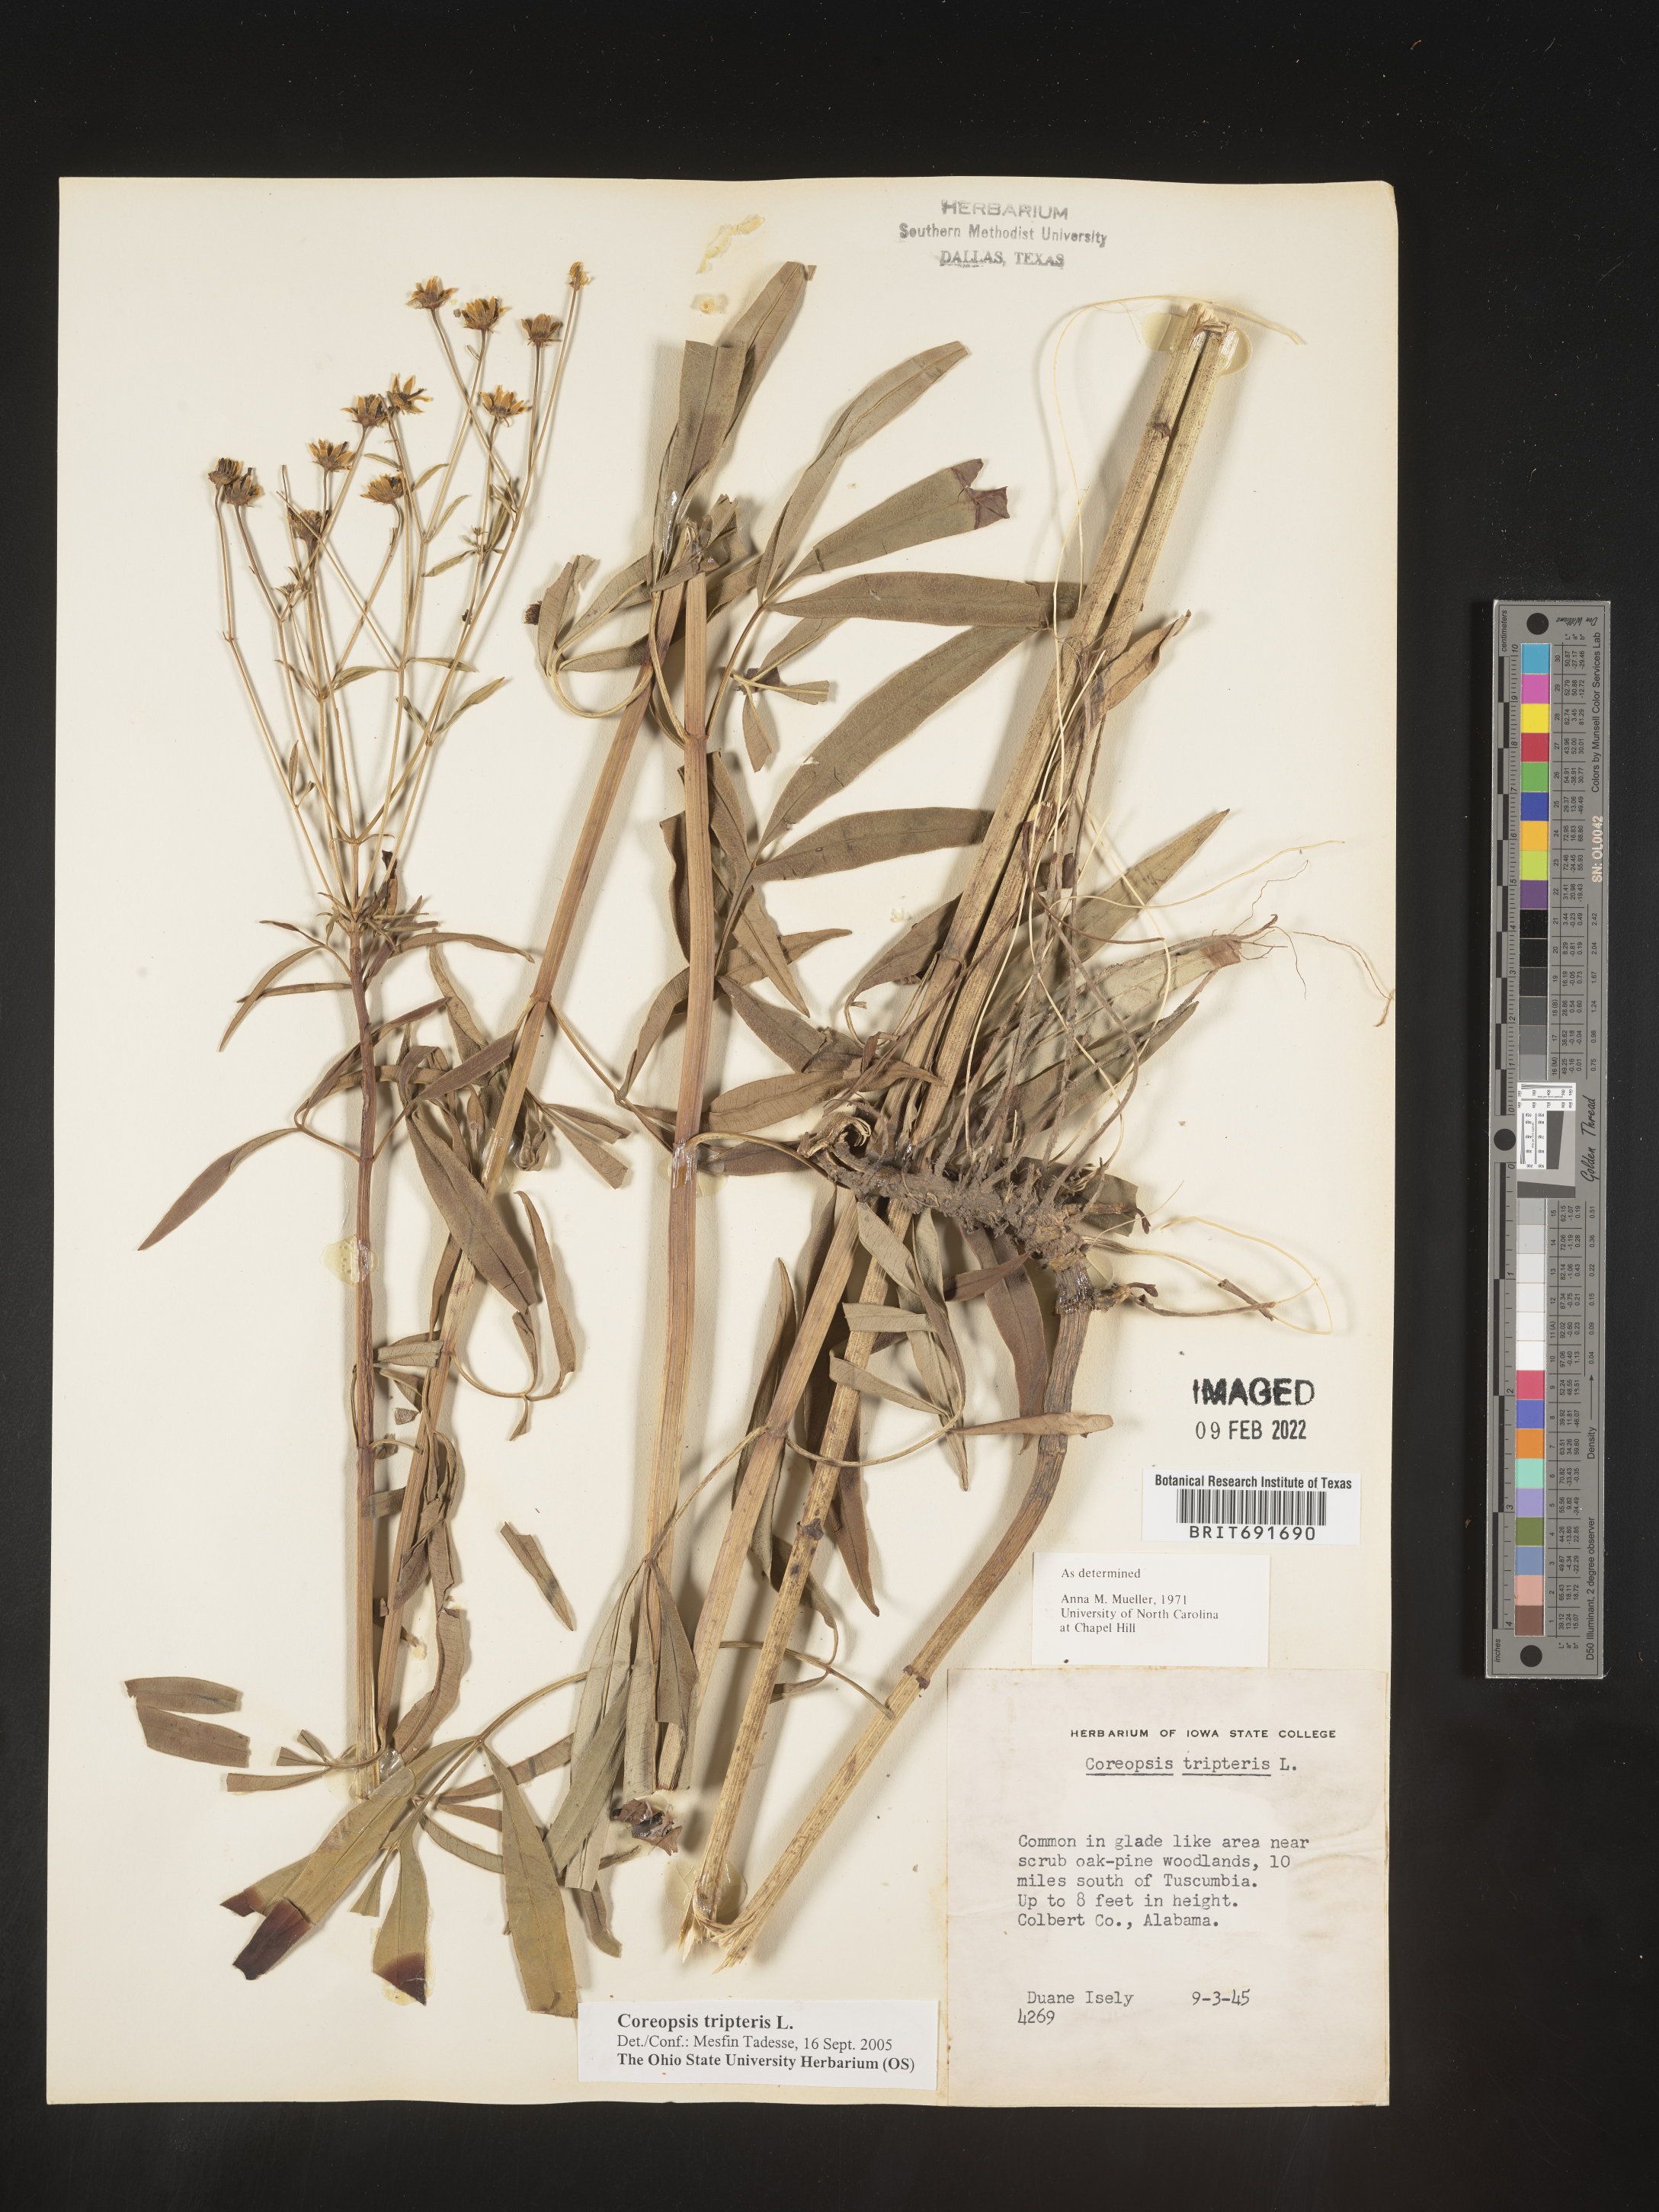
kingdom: Plantae
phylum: Tracheophyta
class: Magnoliopsida
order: Asterales
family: Asteraceae
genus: Coreopsis
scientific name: Coreopsis tripteris
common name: Tall coreopsis
